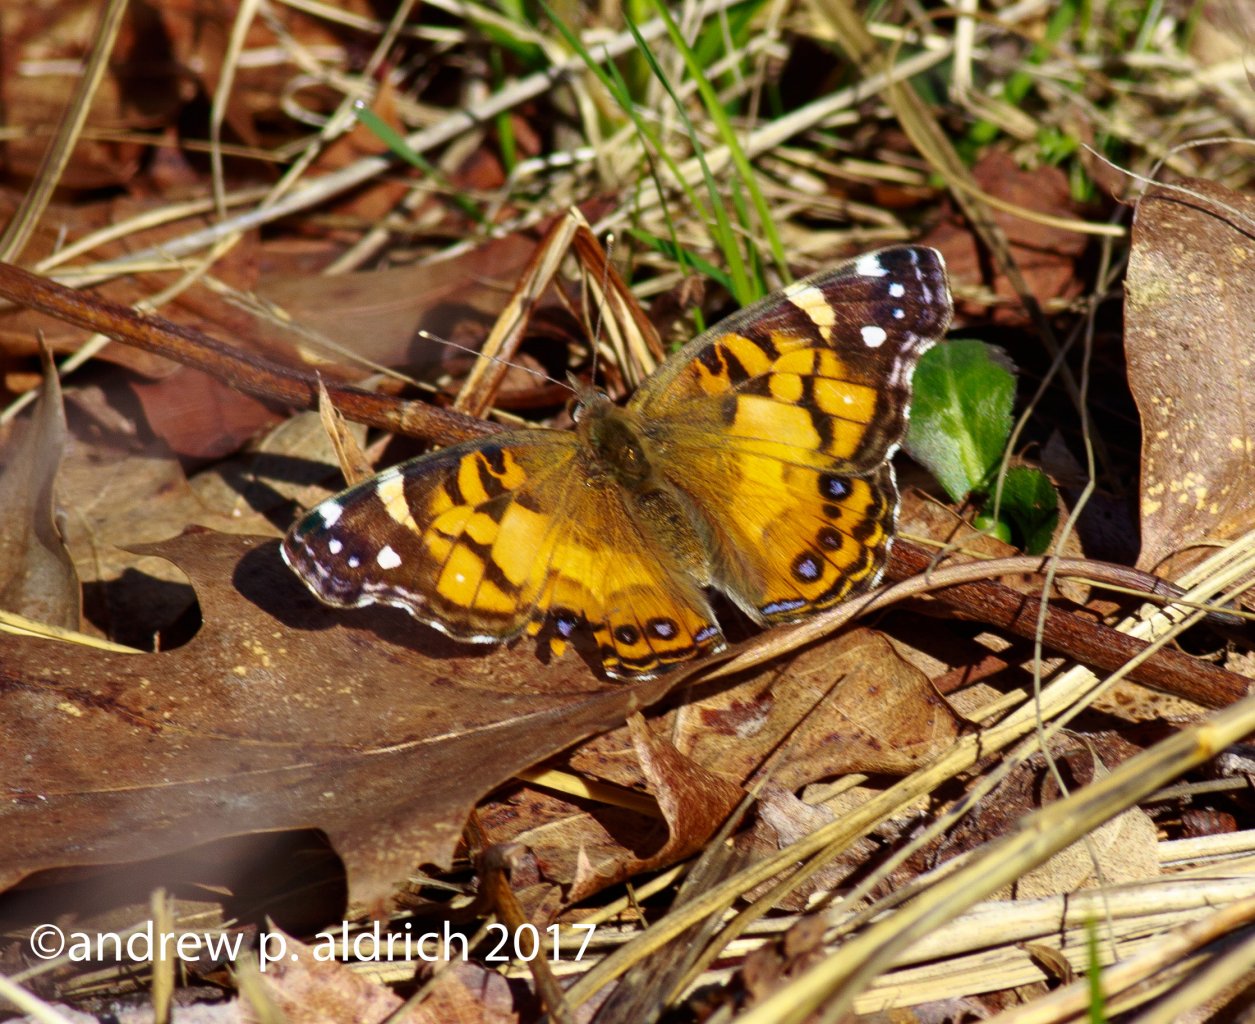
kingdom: Animalia
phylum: Arthropoda
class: Insecta
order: Lepidoptera
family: Nymphalidae
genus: Vanessa
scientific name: Vanessa virginiensis
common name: American Lady
